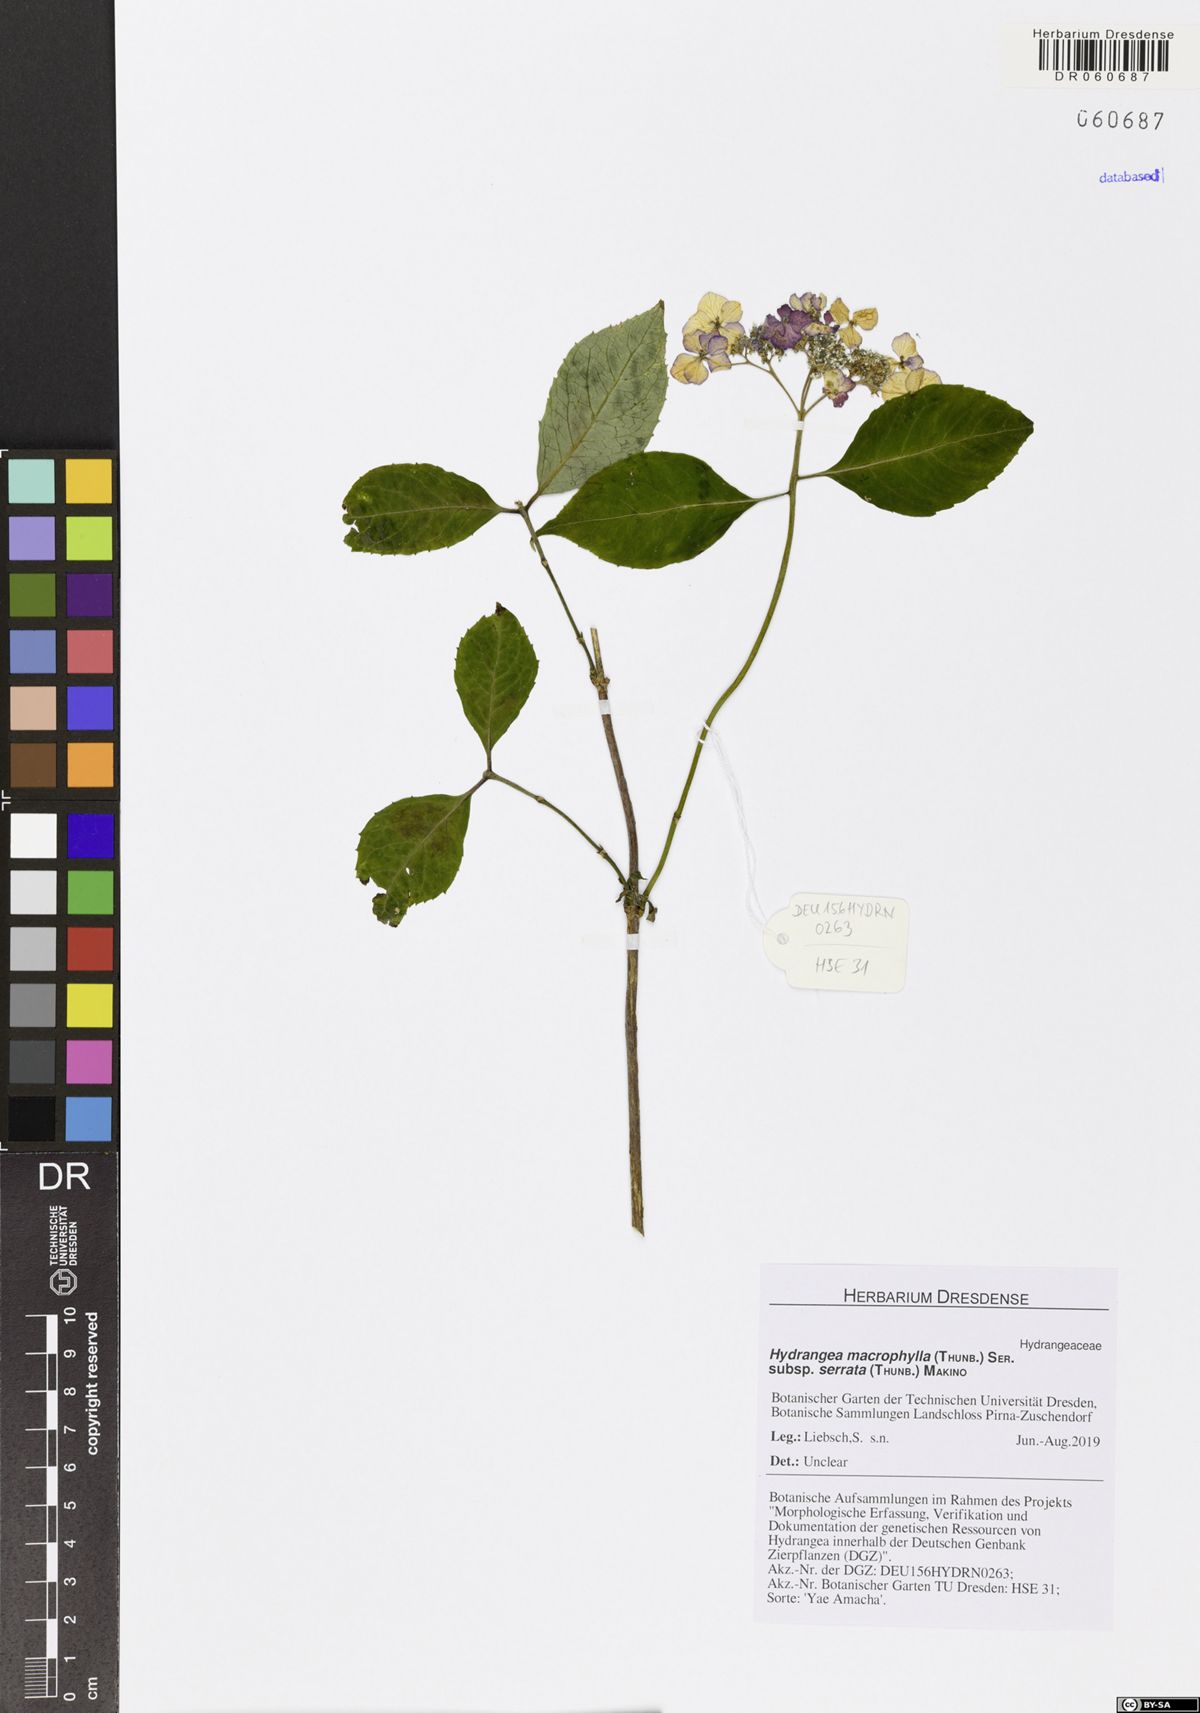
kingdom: Plantae
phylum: Tracheophyta
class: Magnoliopsida
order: Cornales
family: Hydrangeaceae
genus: Hydrangea
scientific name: Hydrangea serrata
